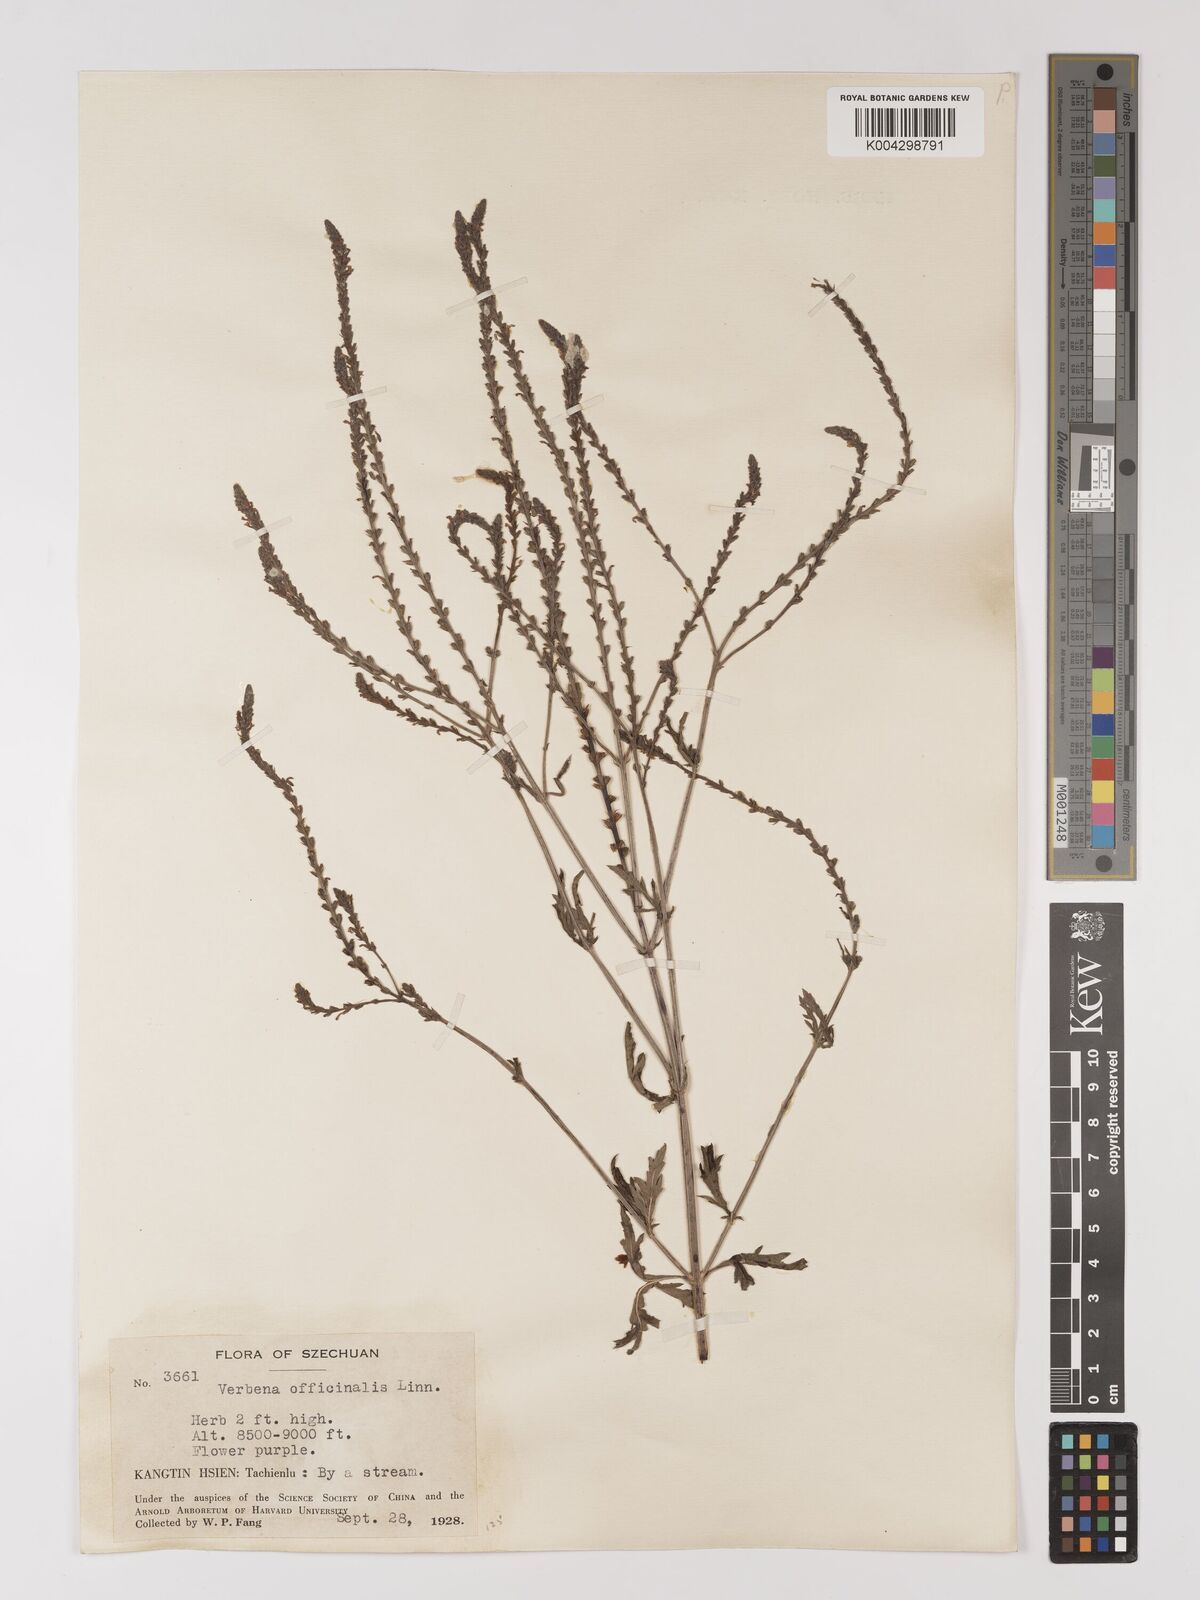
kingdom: Plantae
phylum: Tracheophyta
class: Magnoliopsida
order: Lamiales
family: Verbenaceae
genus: Verbena
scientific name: Verbena officinalis
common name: Vervain
